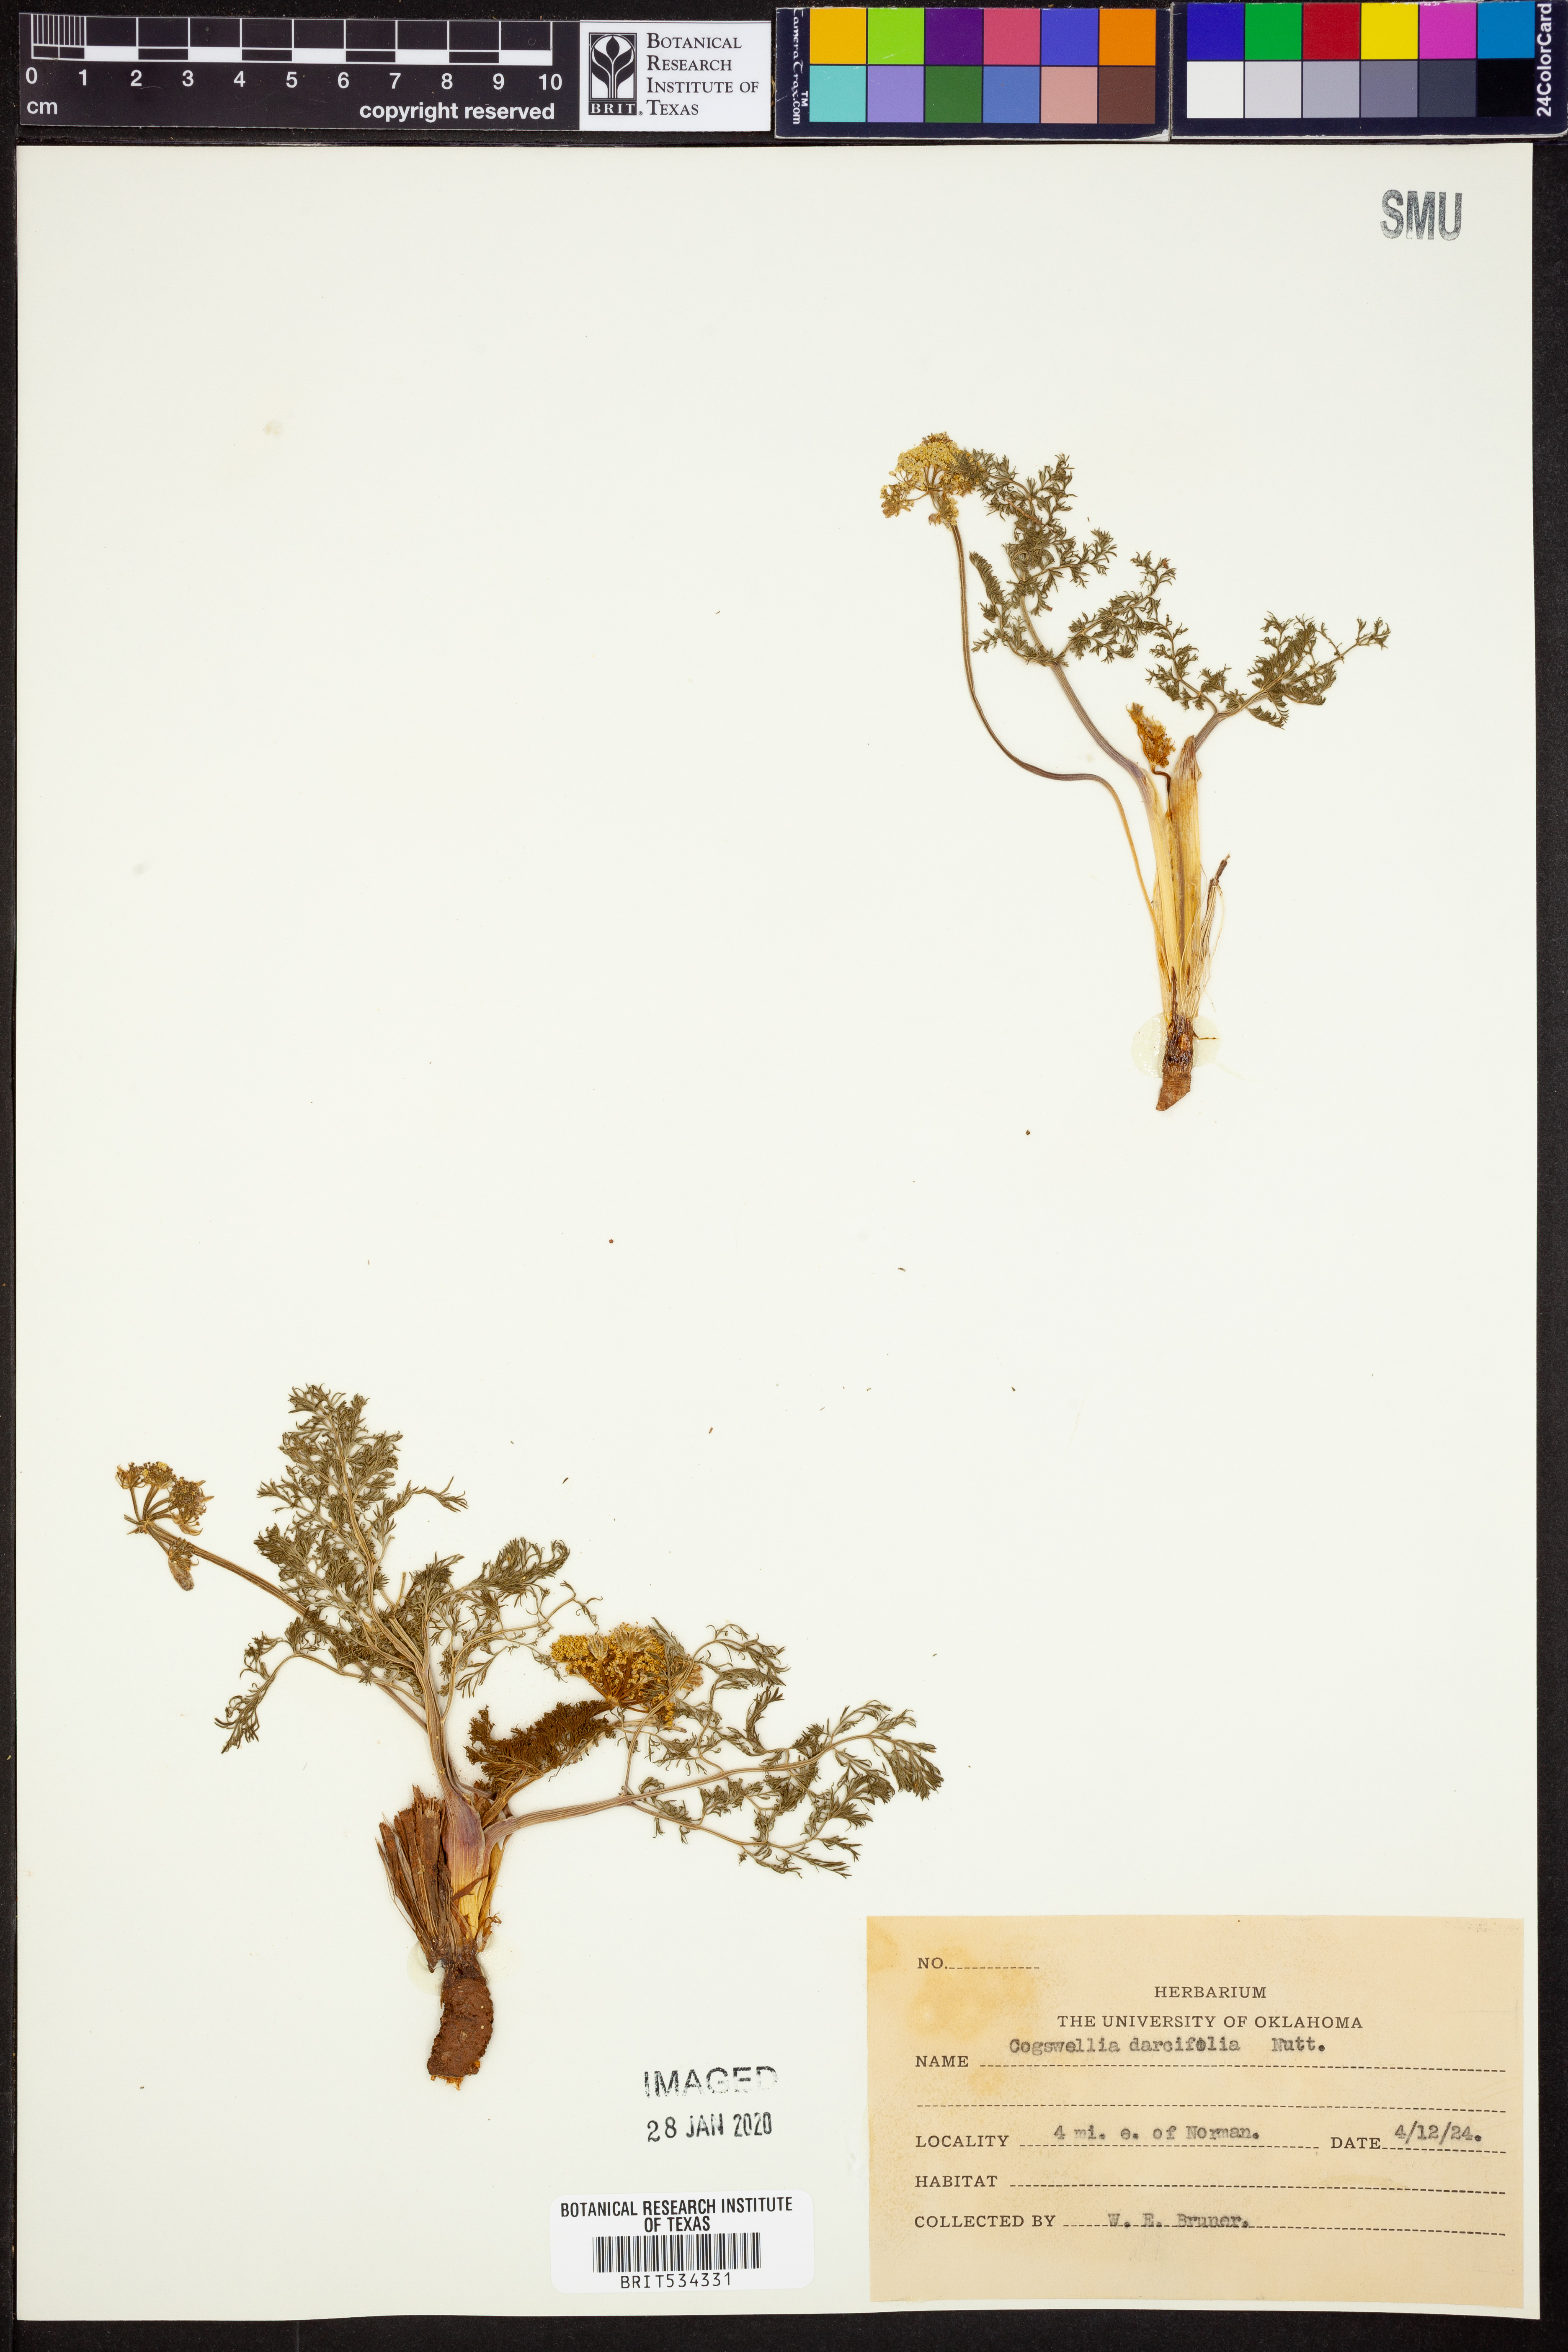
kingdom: Plantae
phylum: Tracheophyta
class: Magnoliopsida
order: Apiales
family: Apiaceae
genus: Lomatium
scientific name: Lomatium foeniculaceum
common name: Desert-parsley
